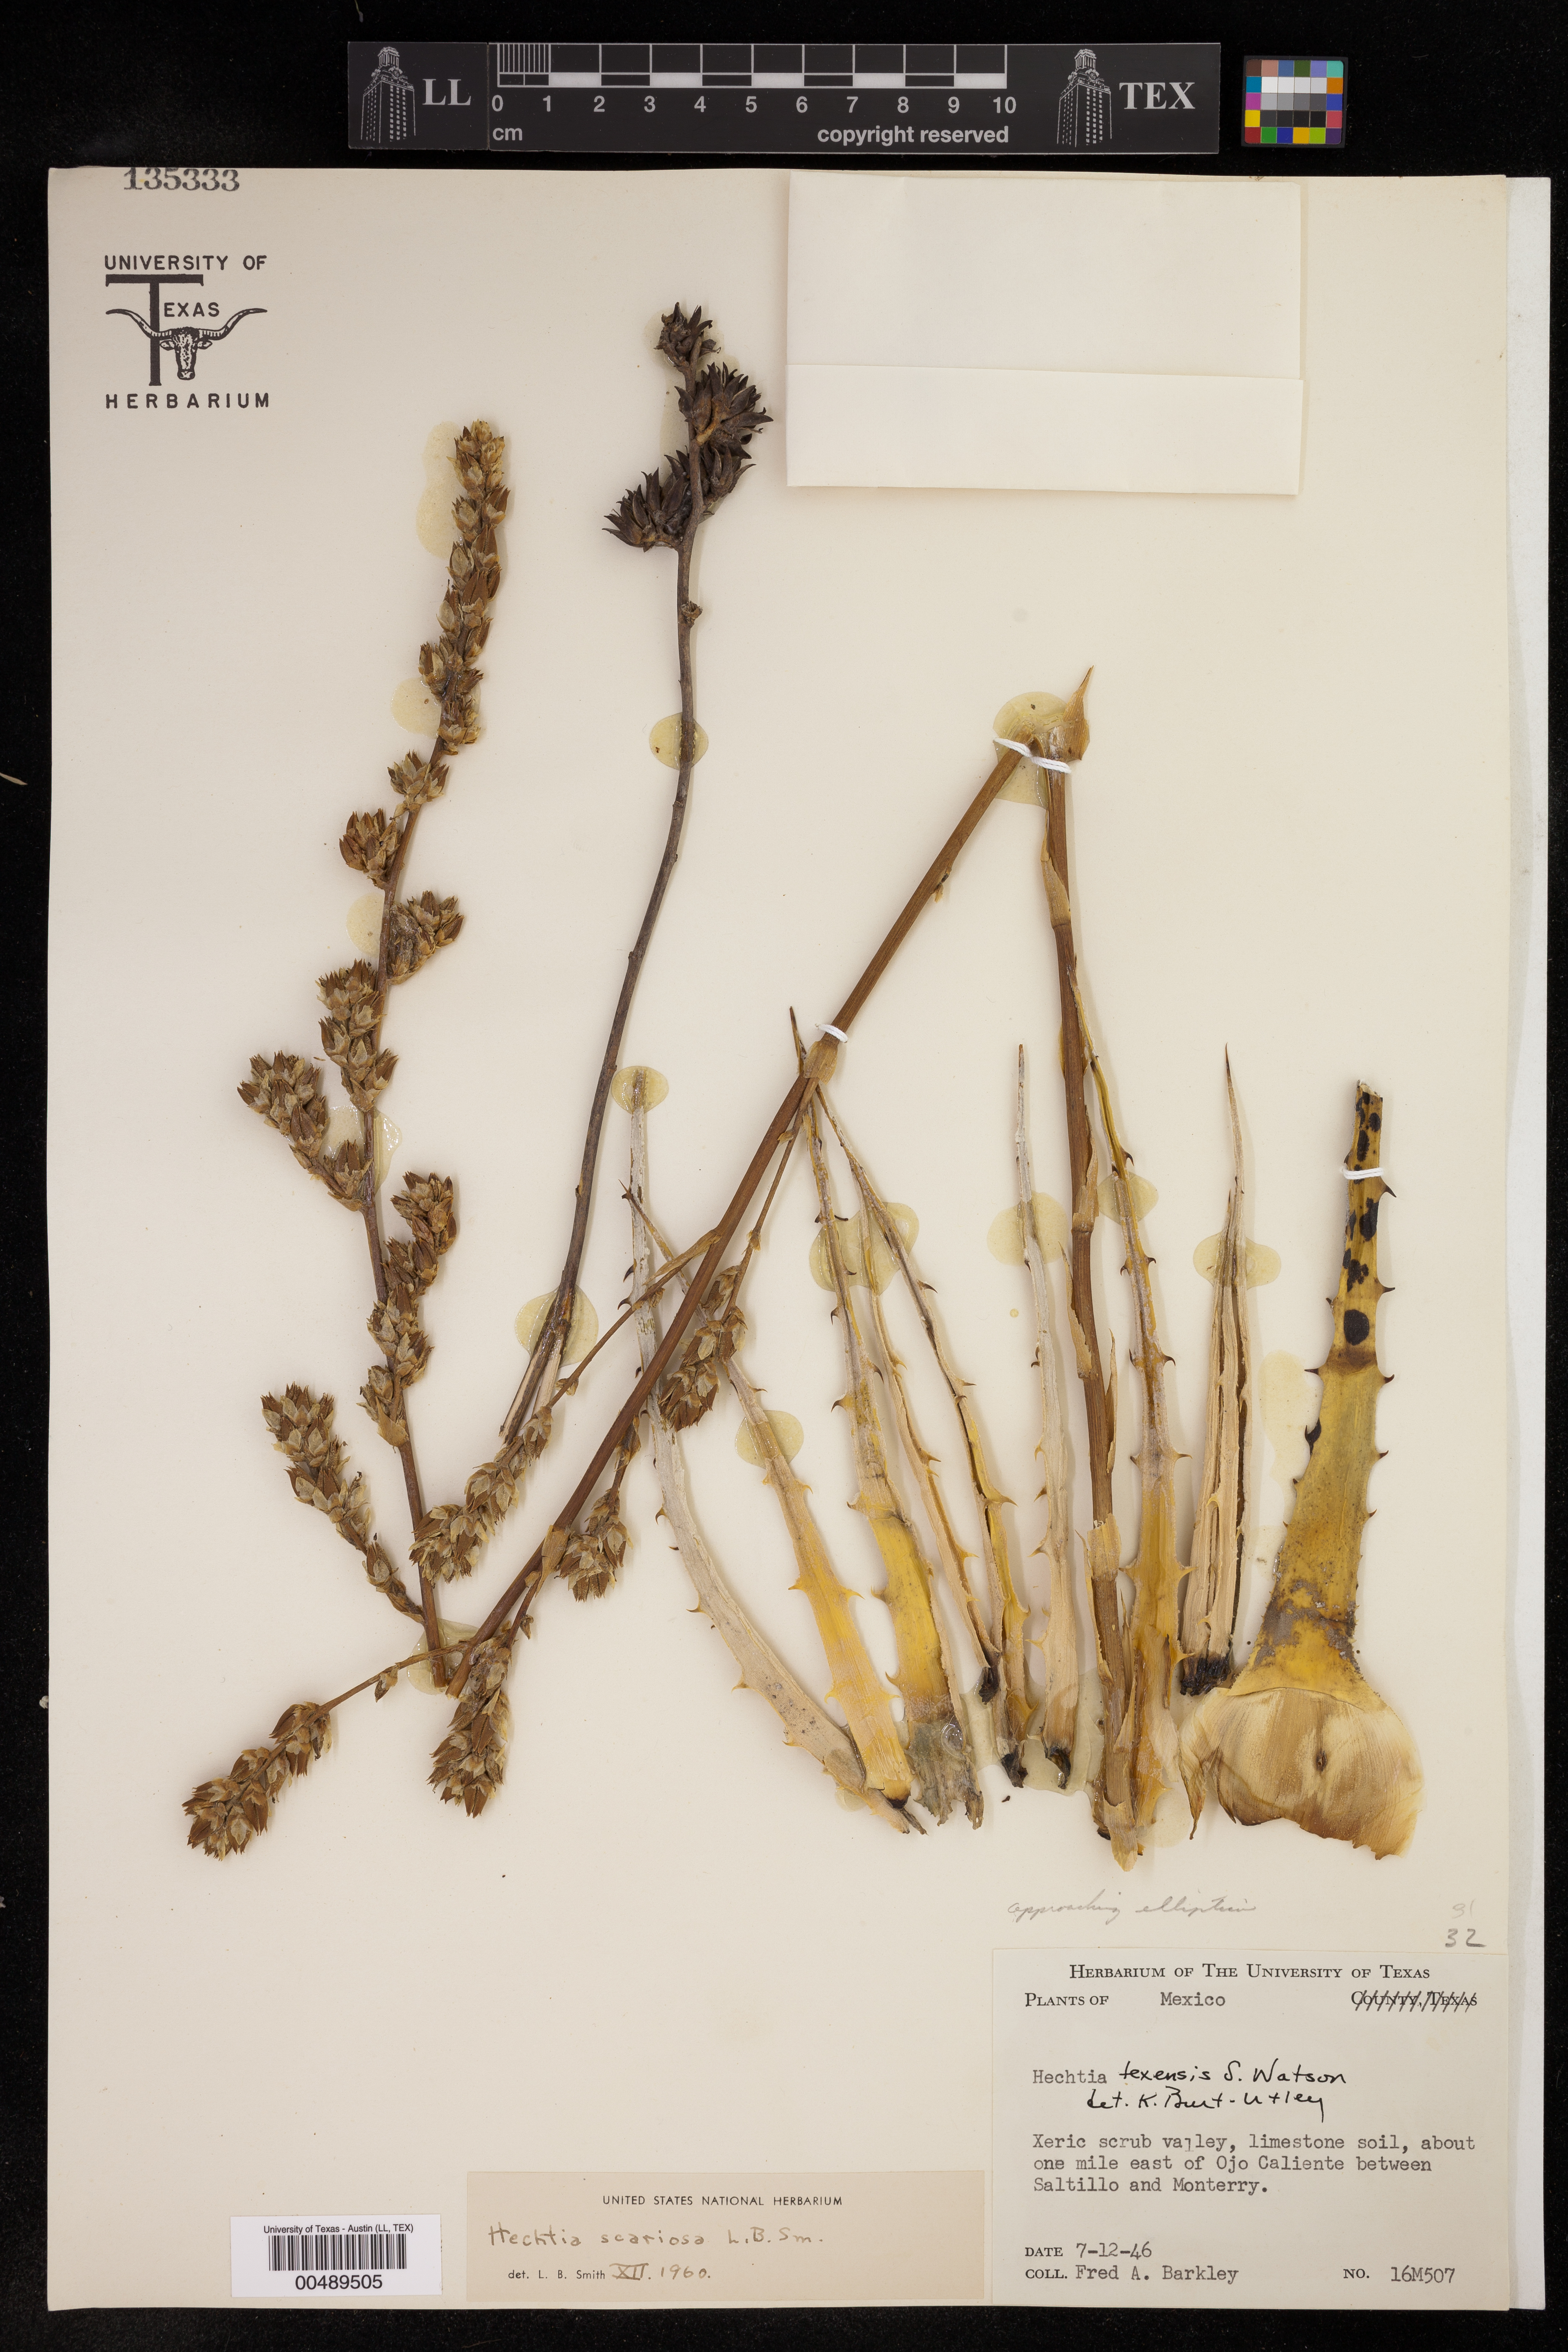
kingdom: Plantae
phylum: Tracheophyta
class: Liliopsida
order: Poales
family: Bromeliaceae
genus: Hechtia
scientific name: Hechtia texensis
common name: False agave
